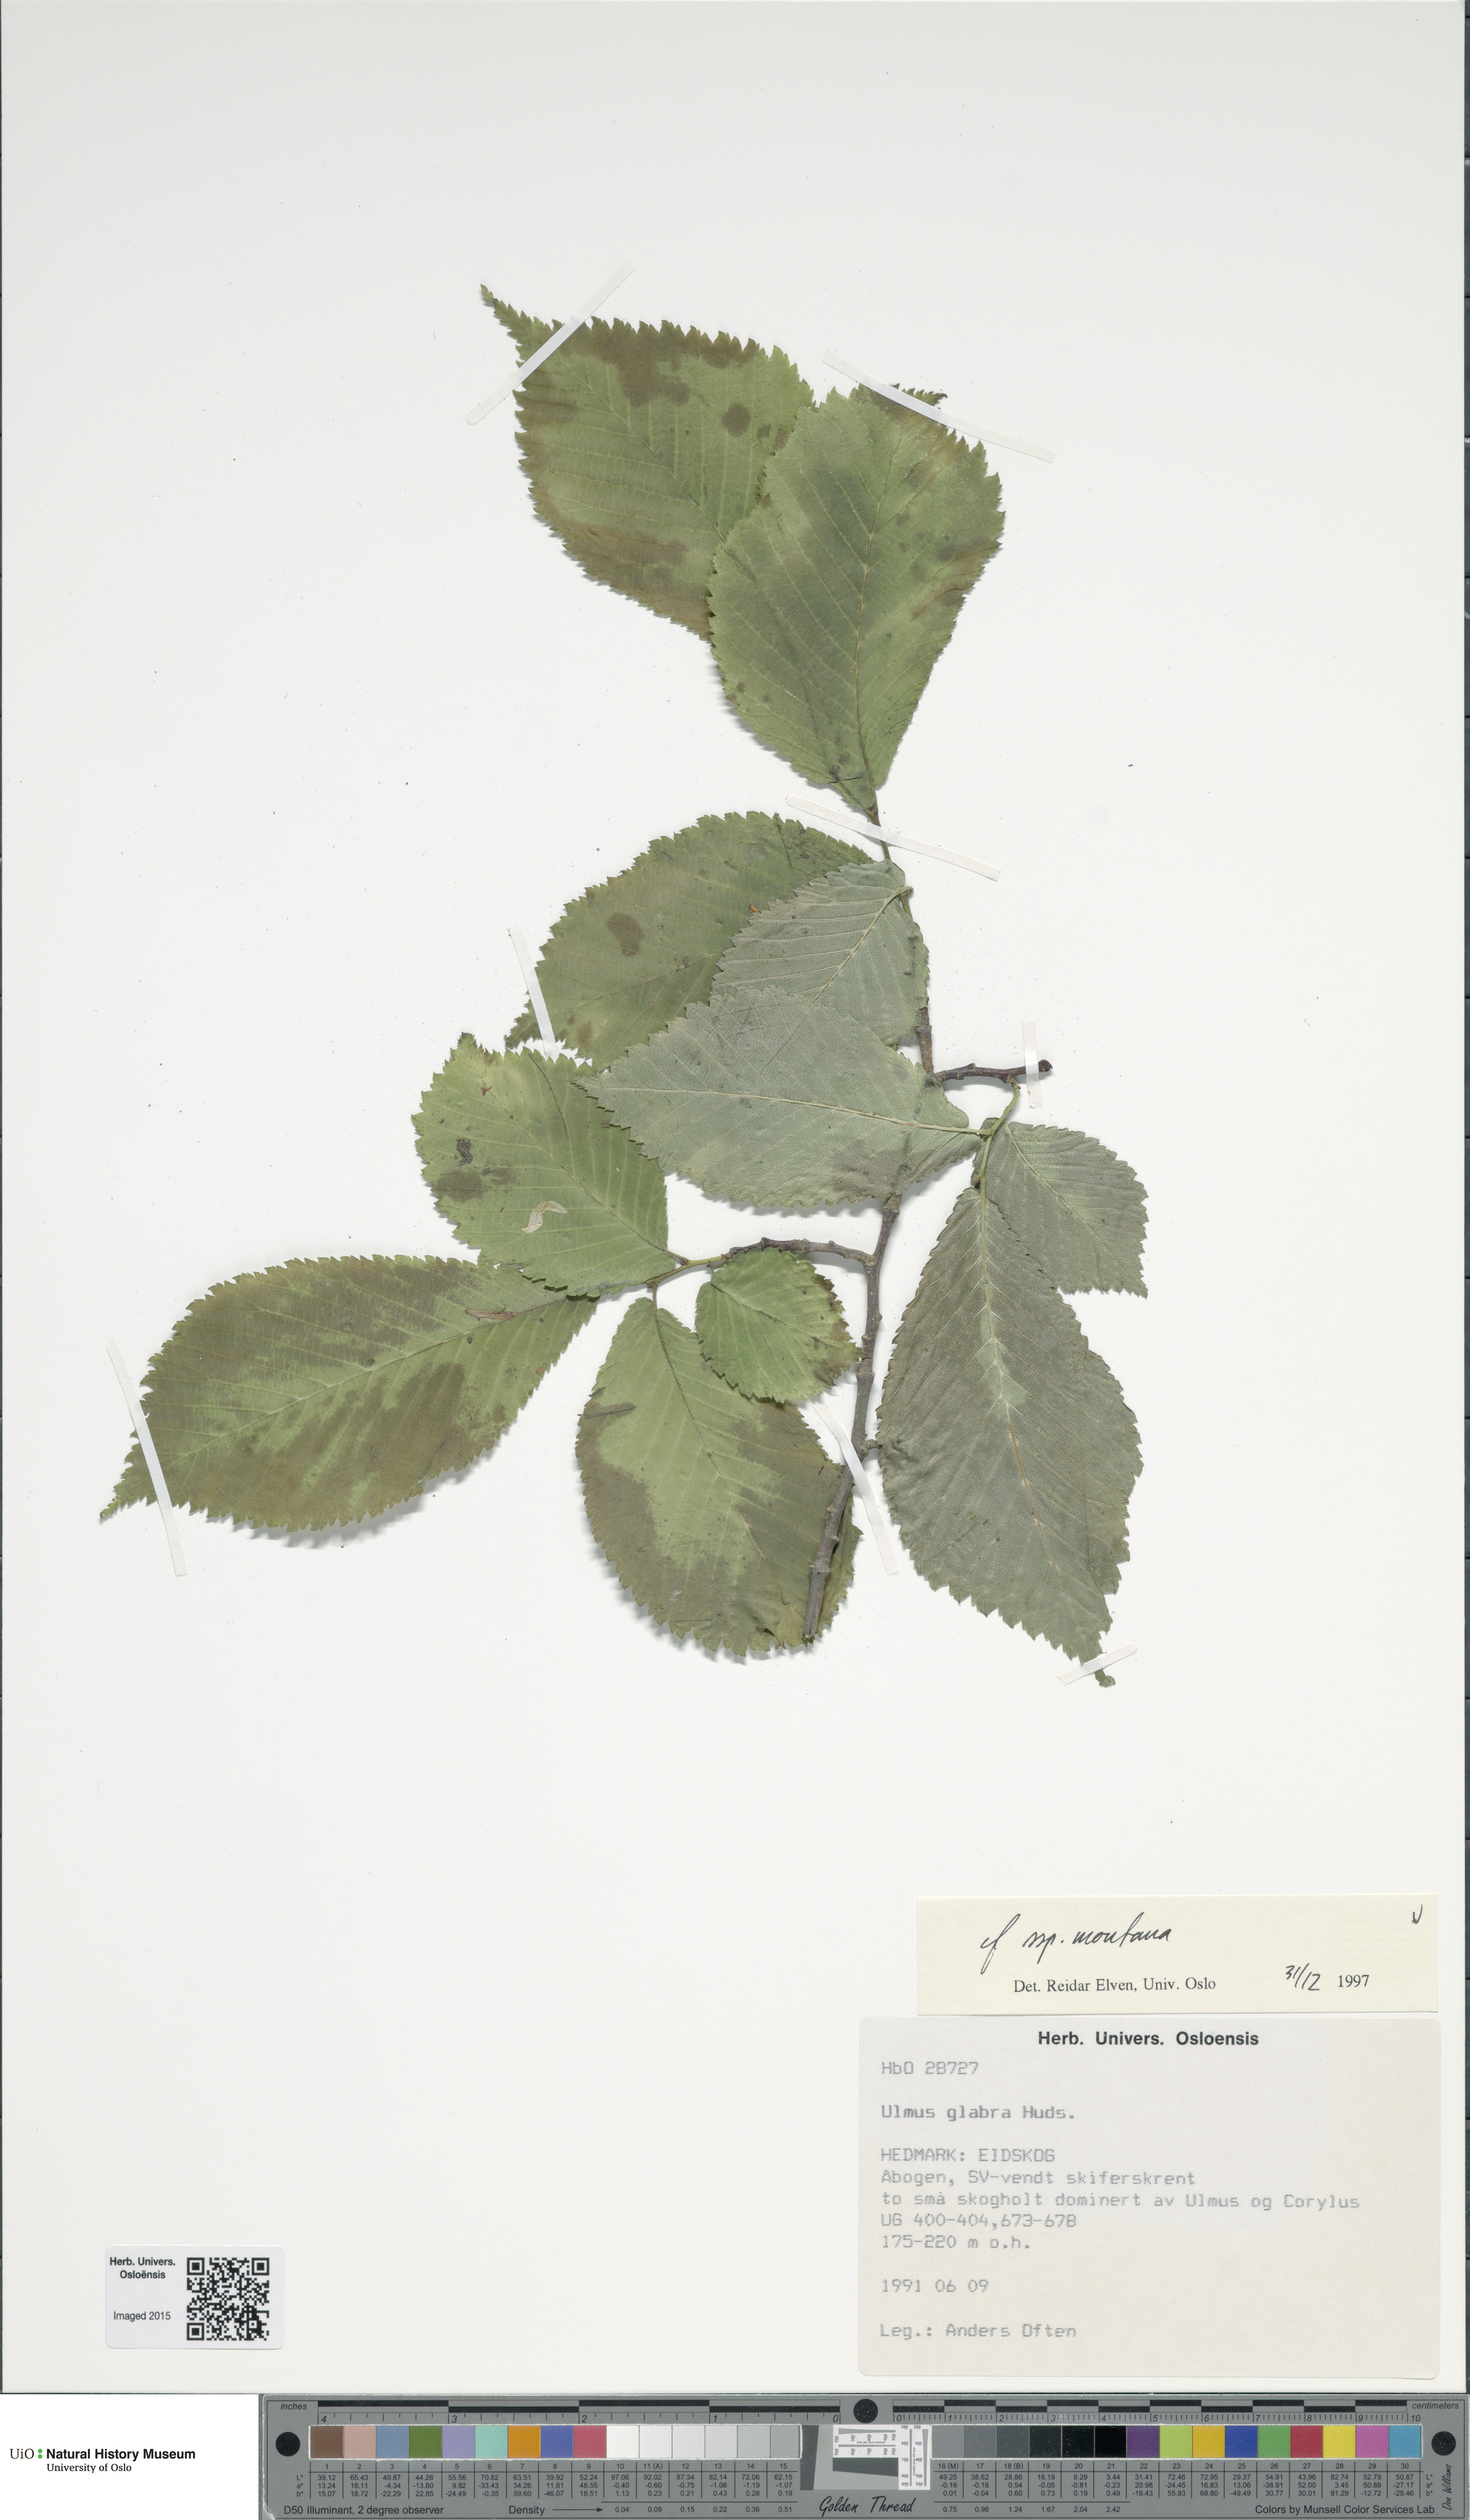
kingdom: Plantae
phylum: Tracheophyta
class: Magnoliopsida
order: Rosales
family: Ulmaceae
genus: Ulmus
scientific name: Ulmus glabra
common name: Wych elm
